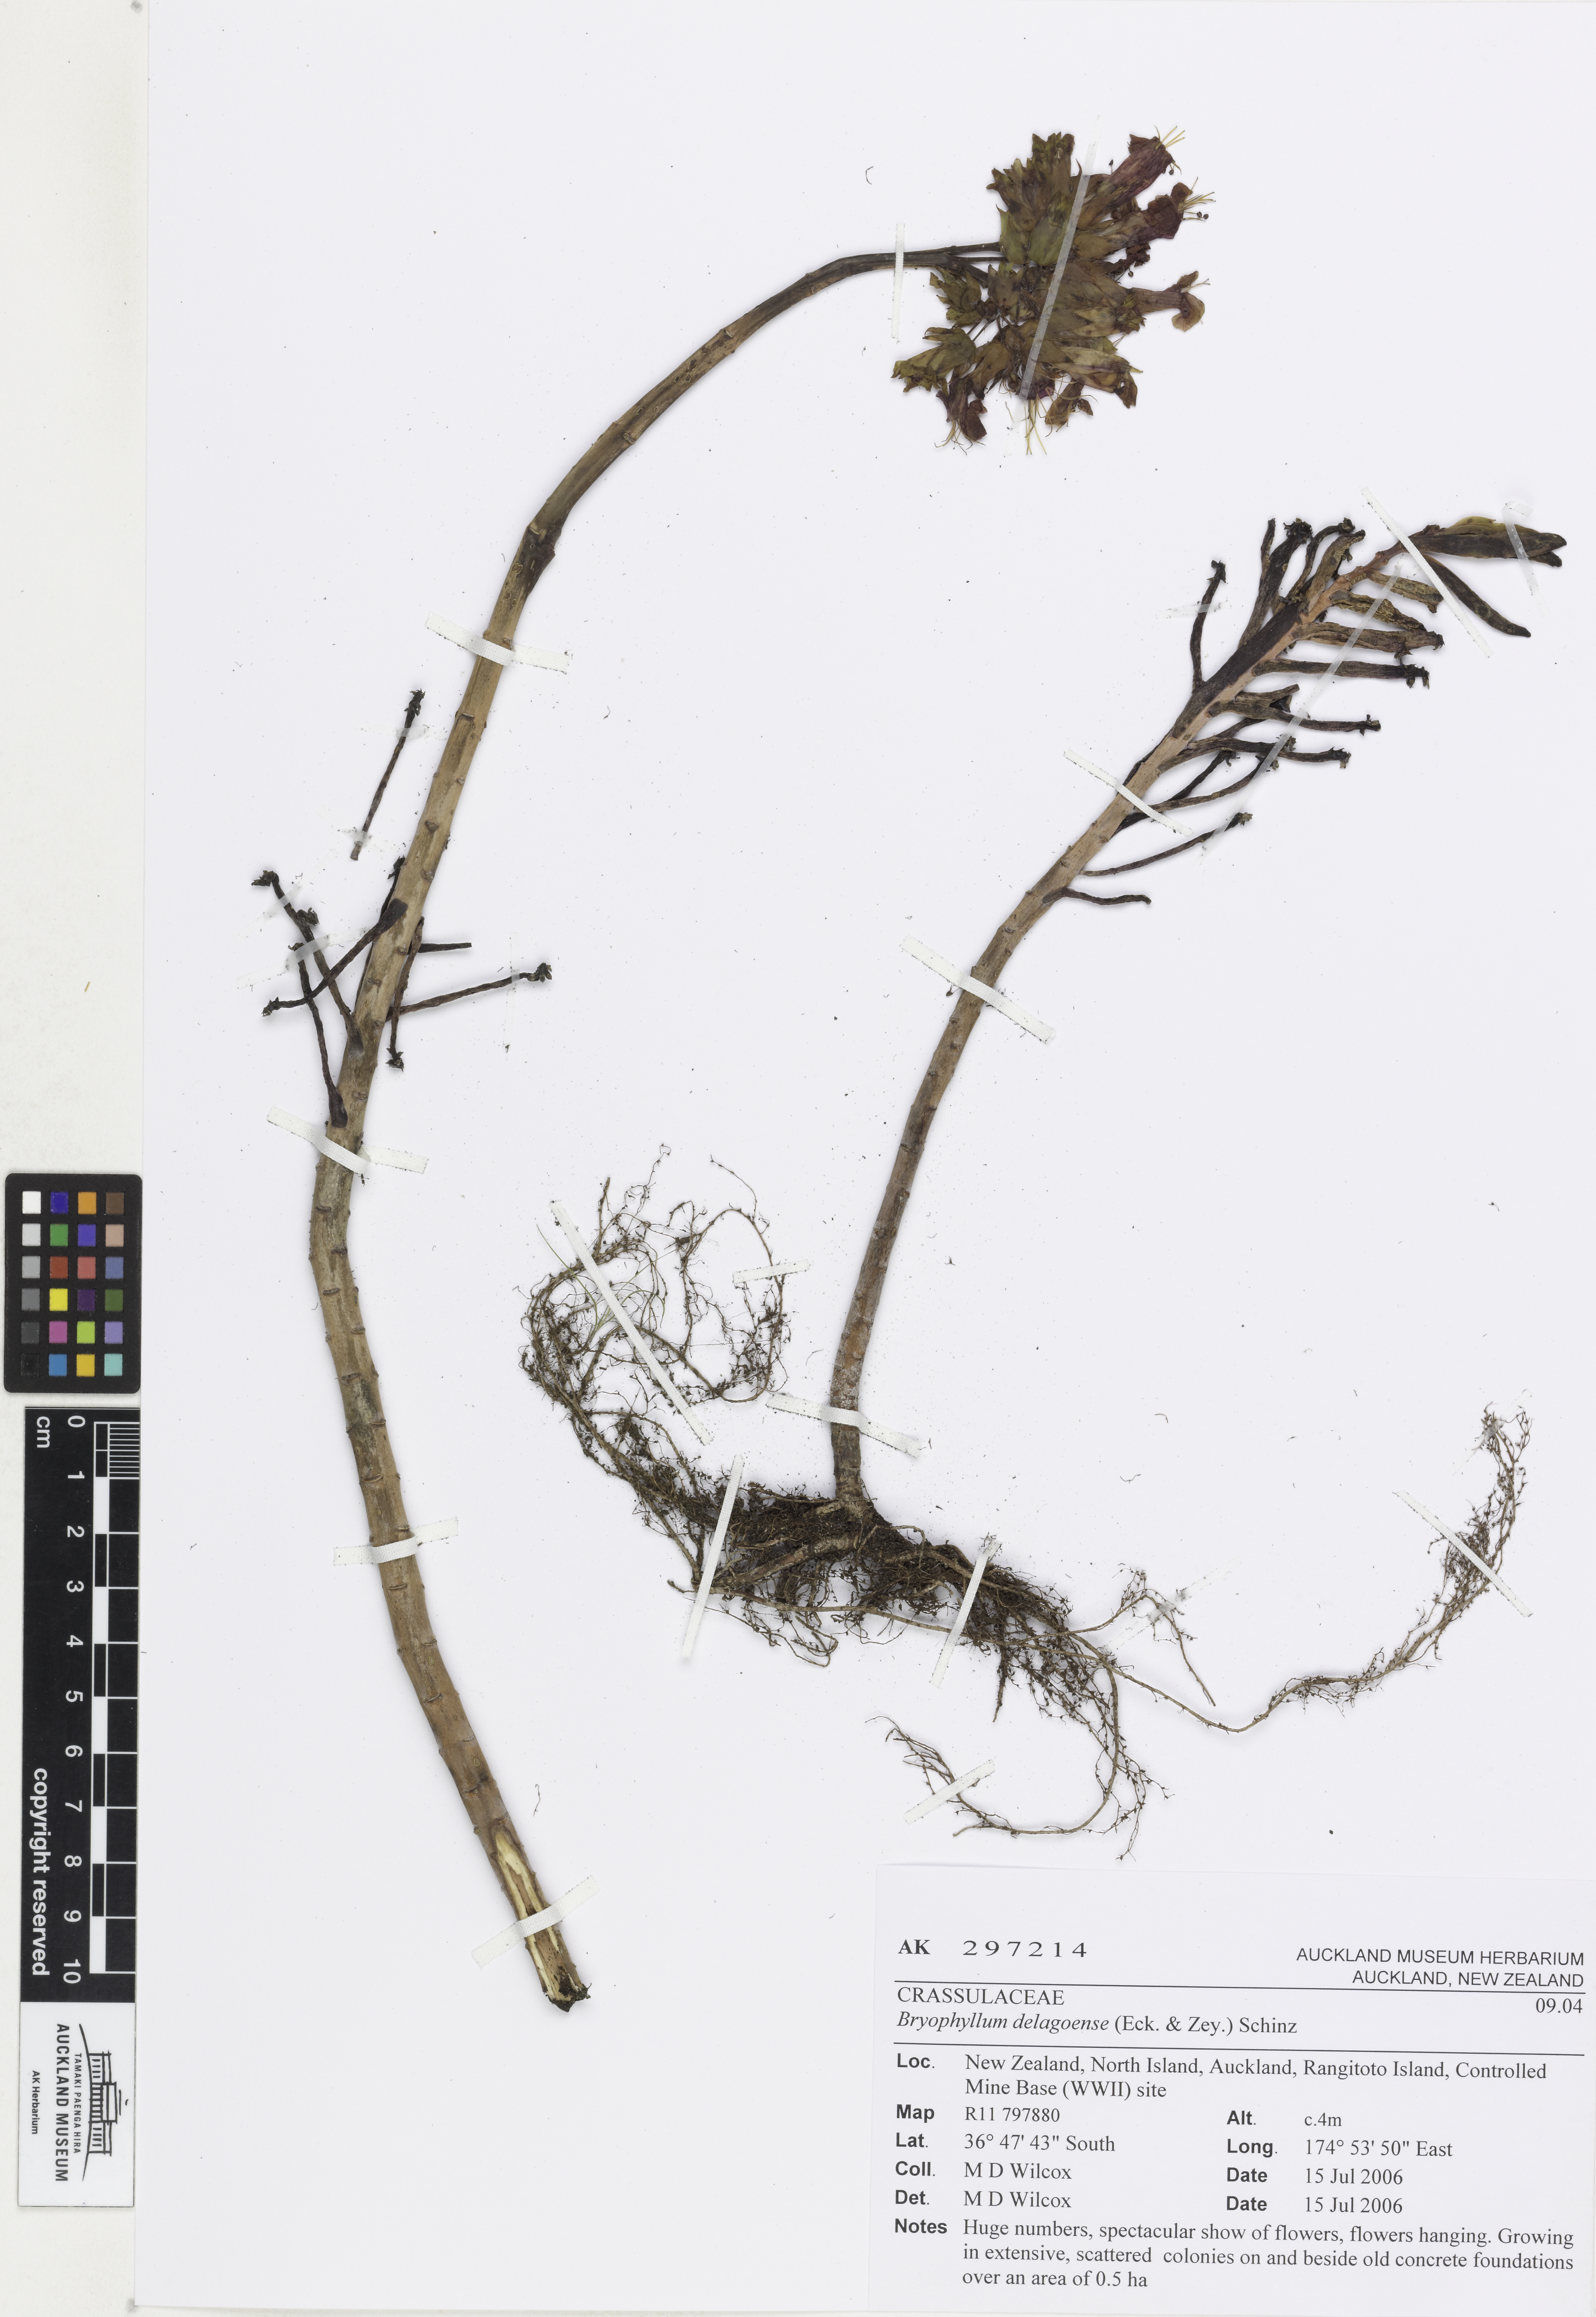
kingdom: Plantae
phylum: Tracheophyta
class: Magnoliopsida
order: Saxifragales
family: Crassulaceae
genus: Kalanchoe
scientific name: Kalanchoe delagoensis
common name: Chandelier plant
